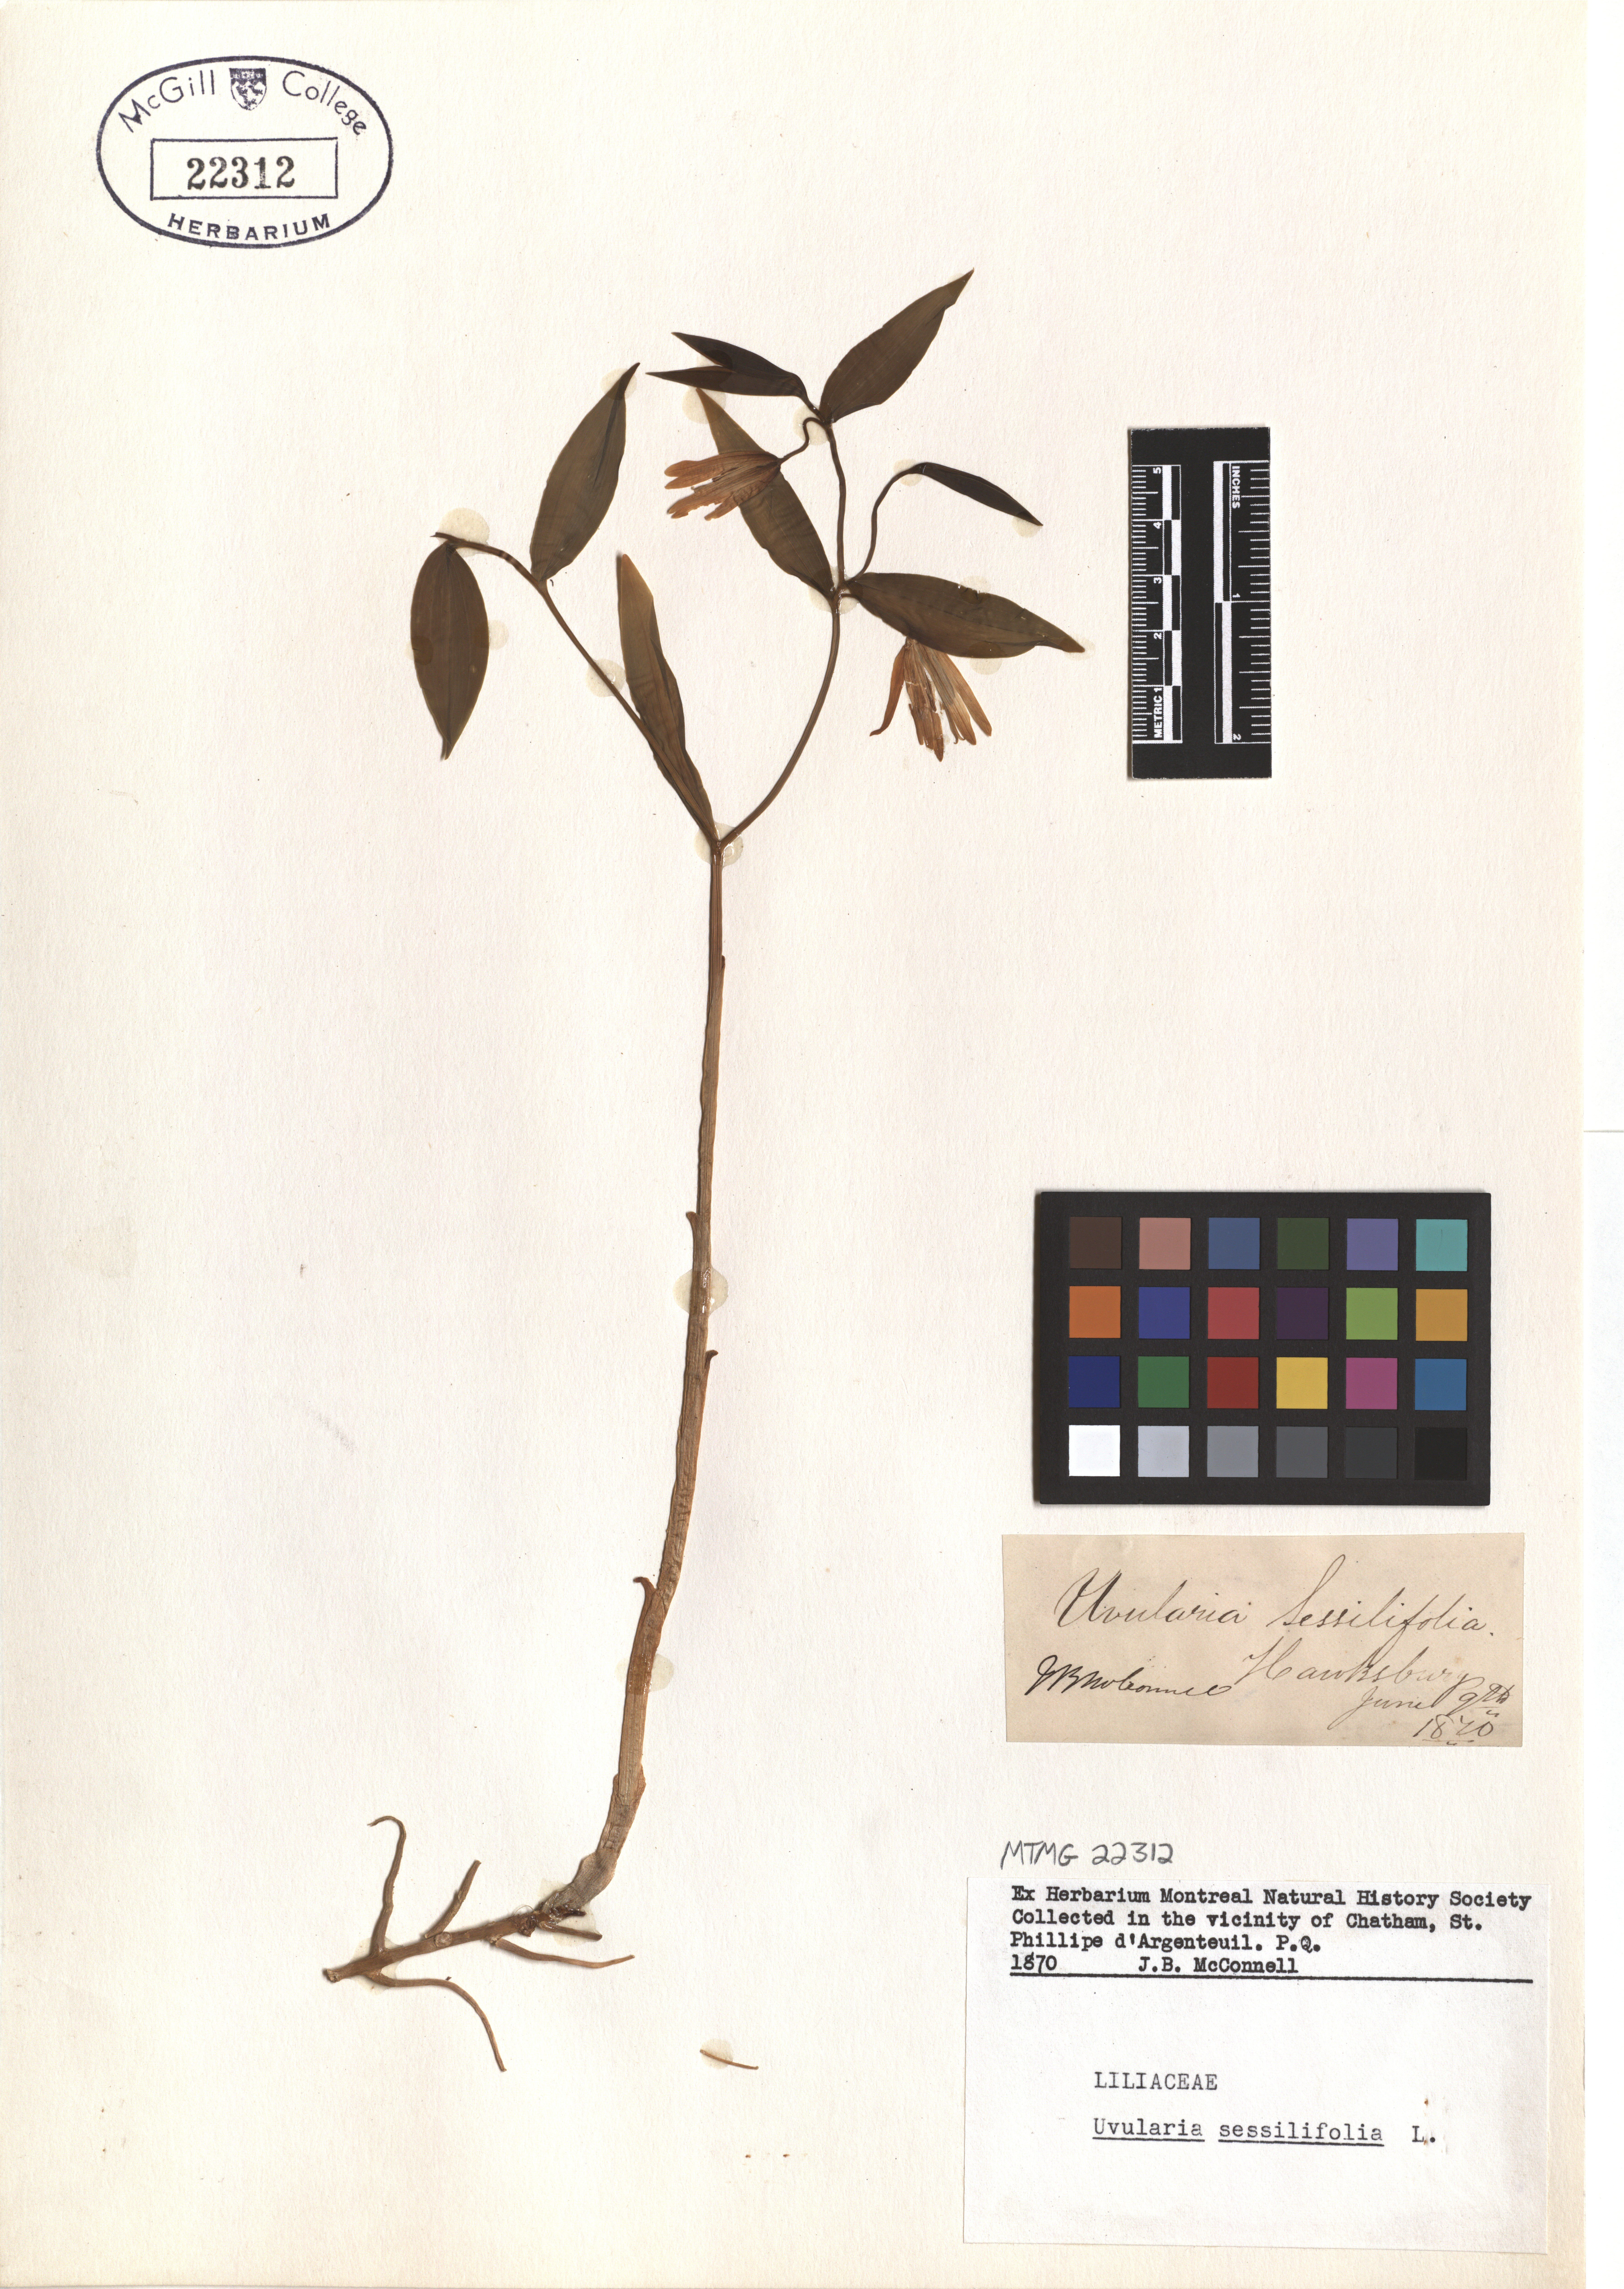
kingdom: Plantae
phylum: Tracheophyta
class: Liliopsida
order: Liliales
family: Colchicaceae
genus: Uvularia
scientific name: Uvularia sessilifolia
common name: Straw-lily
